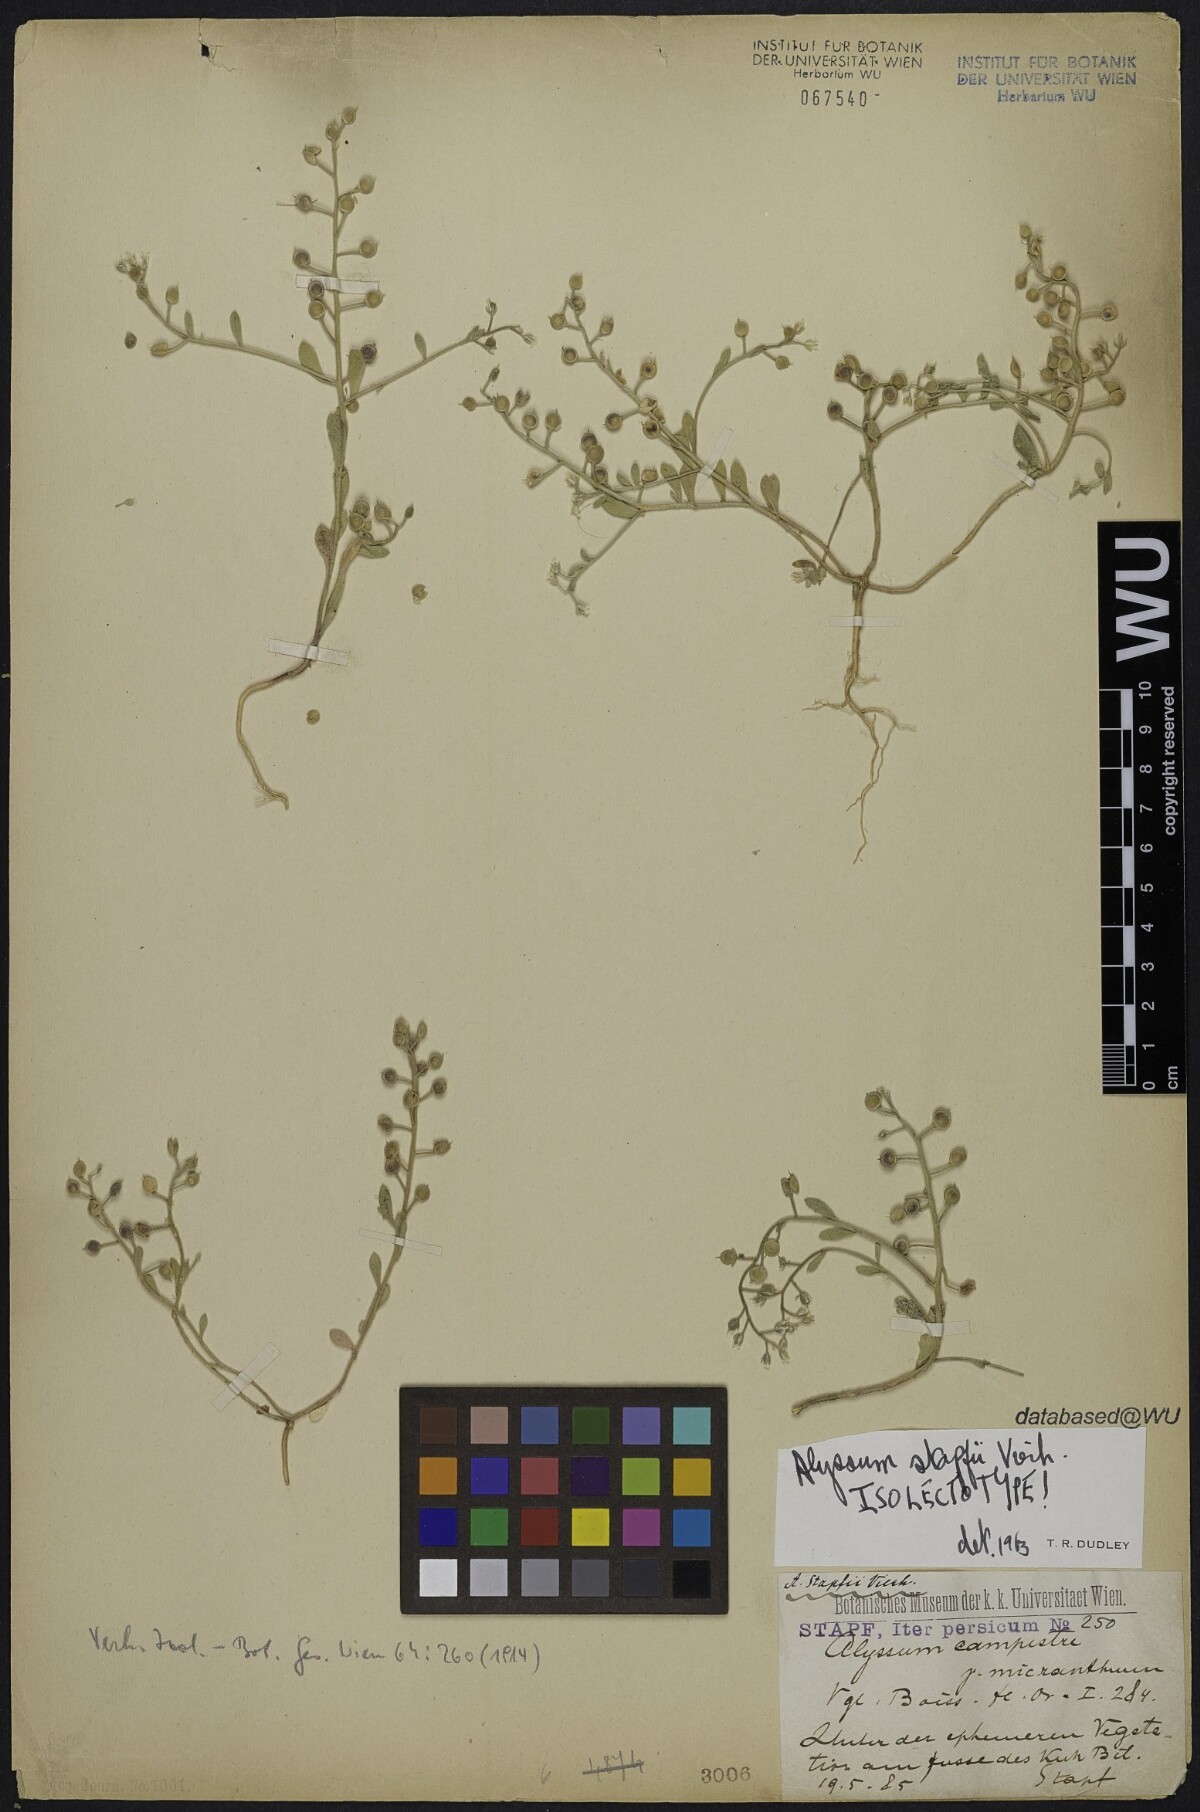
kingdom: Plantae
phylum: Tracheophyta
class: Magnoliopsida
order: Brassicales
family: Brassicaceae
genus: Alyssum
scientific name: Alyssum stapfii
